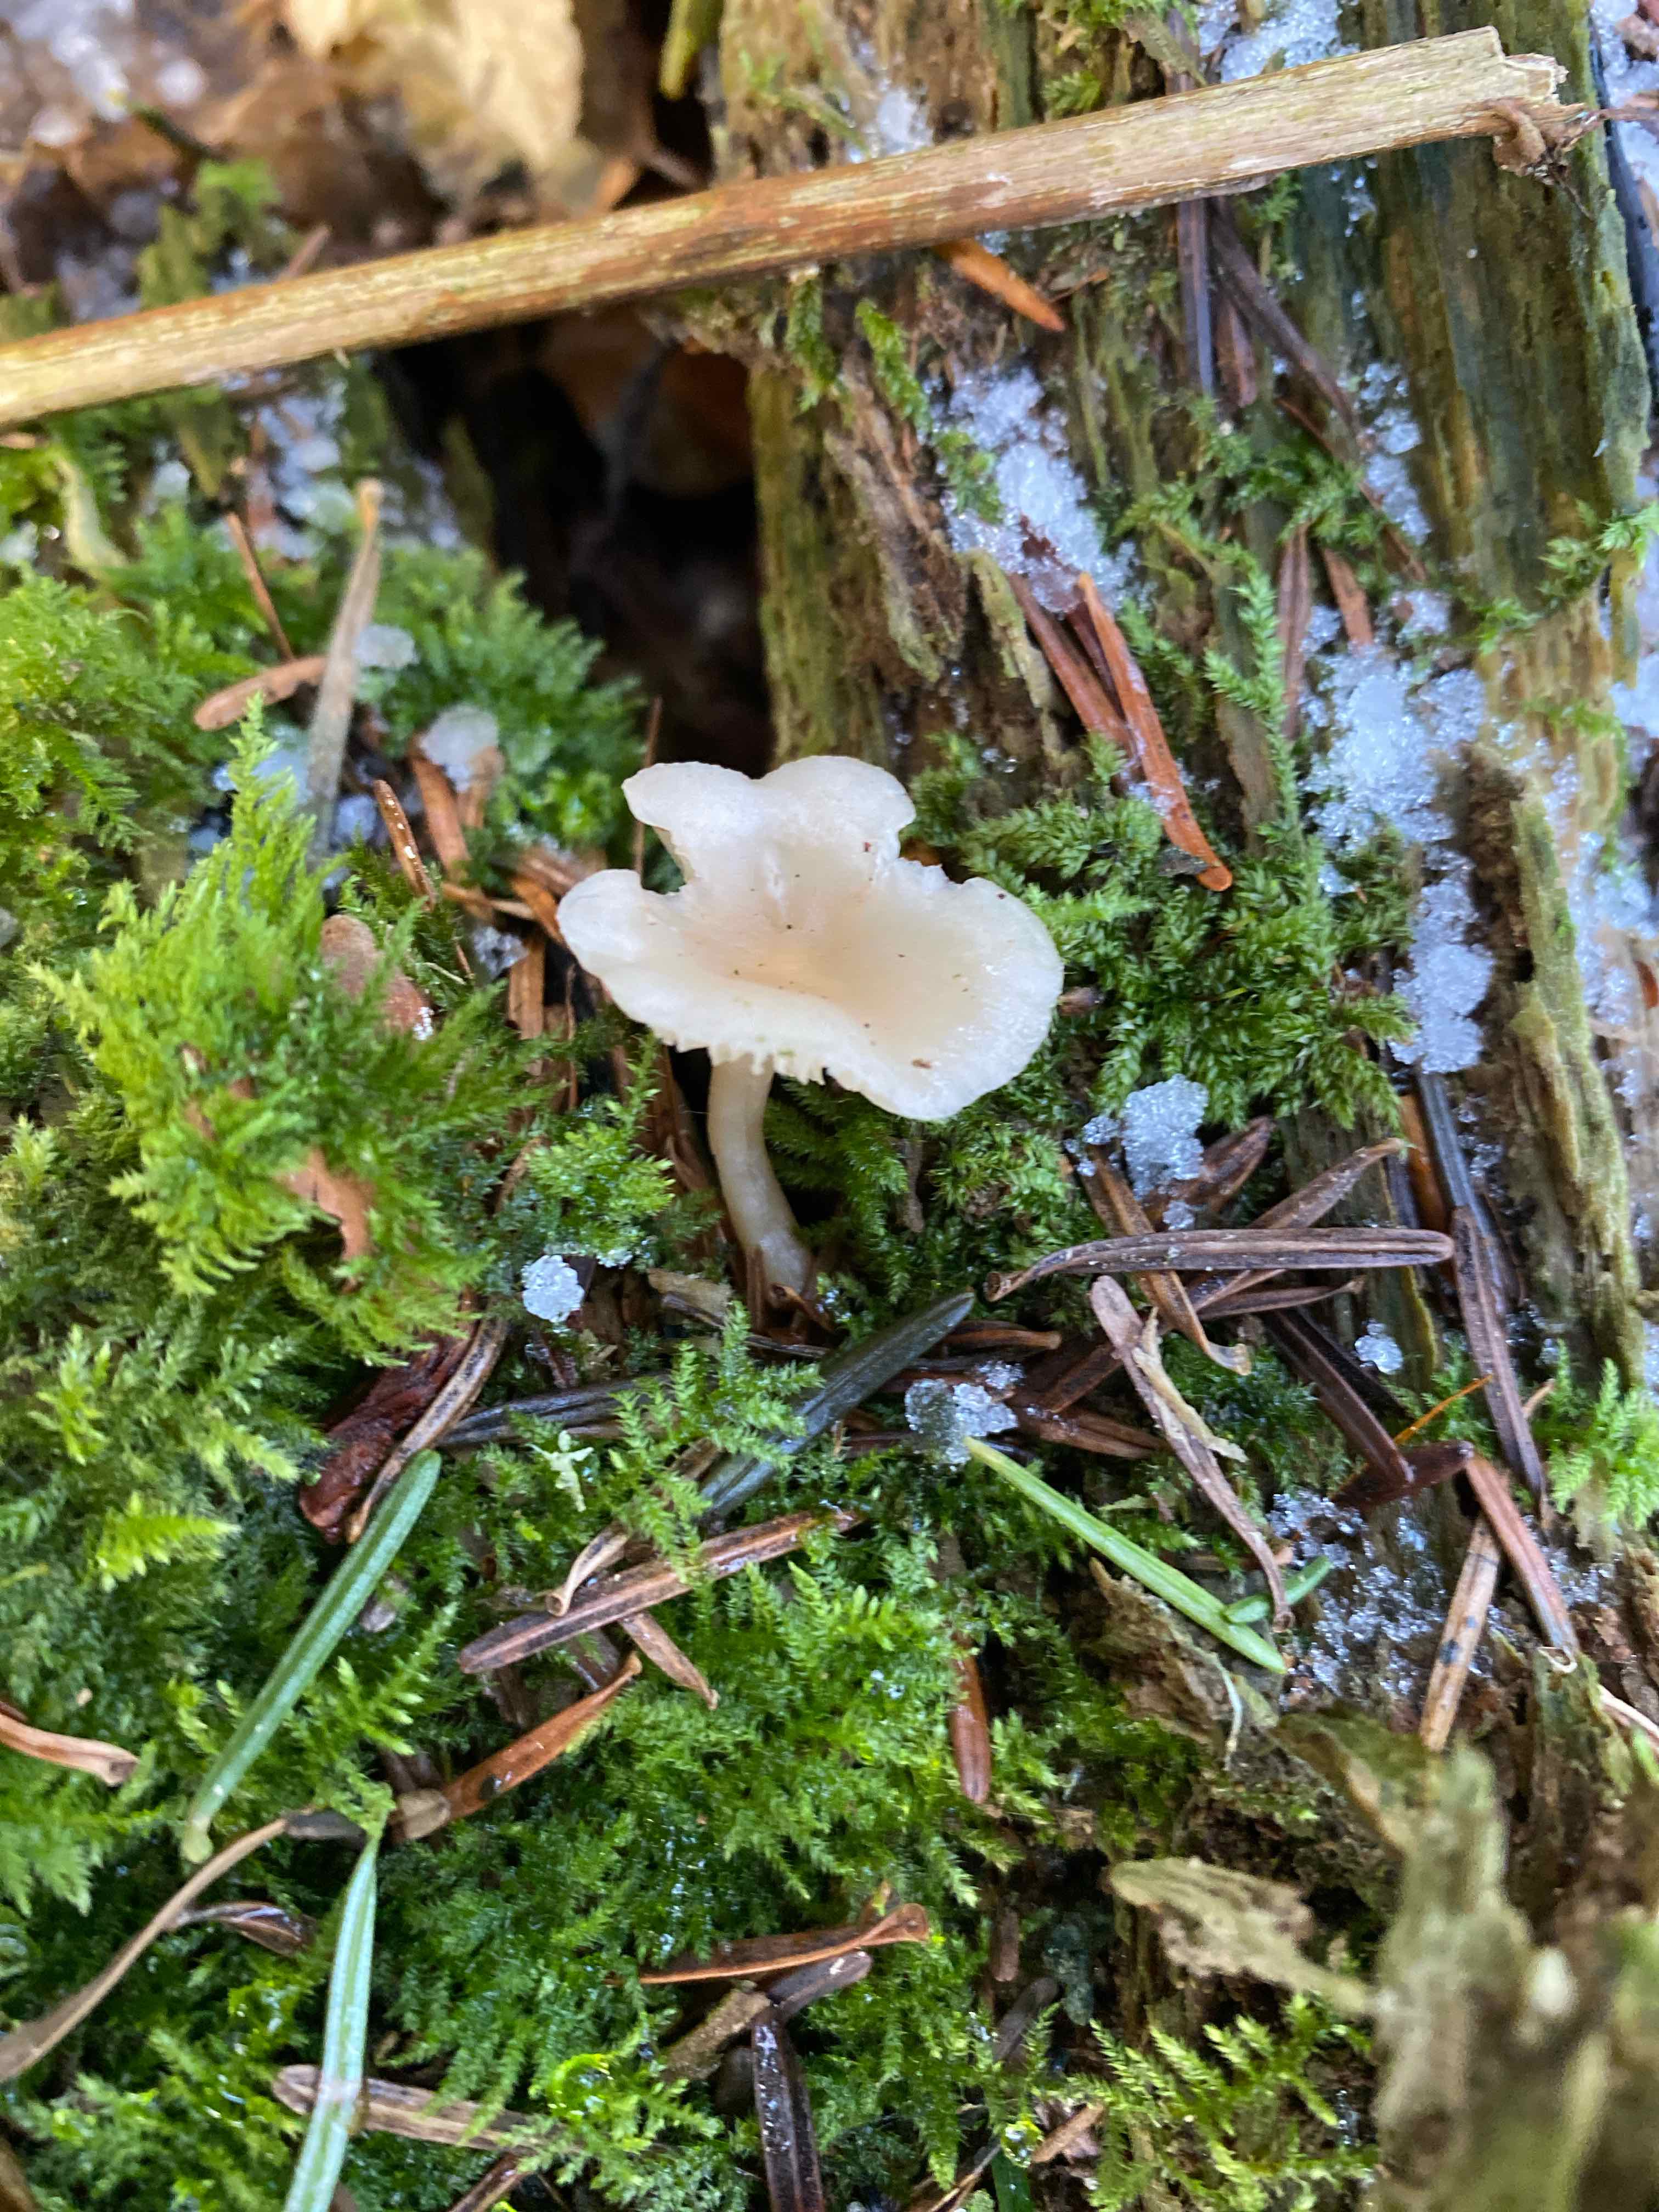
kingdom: Fungi
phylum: Basidiomycota
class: Agaricomycetes
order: Agaricales
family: Tricholomataceae
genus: Clitocybe
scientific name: Clitocybe fragrans
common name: vellugtende tragthat
